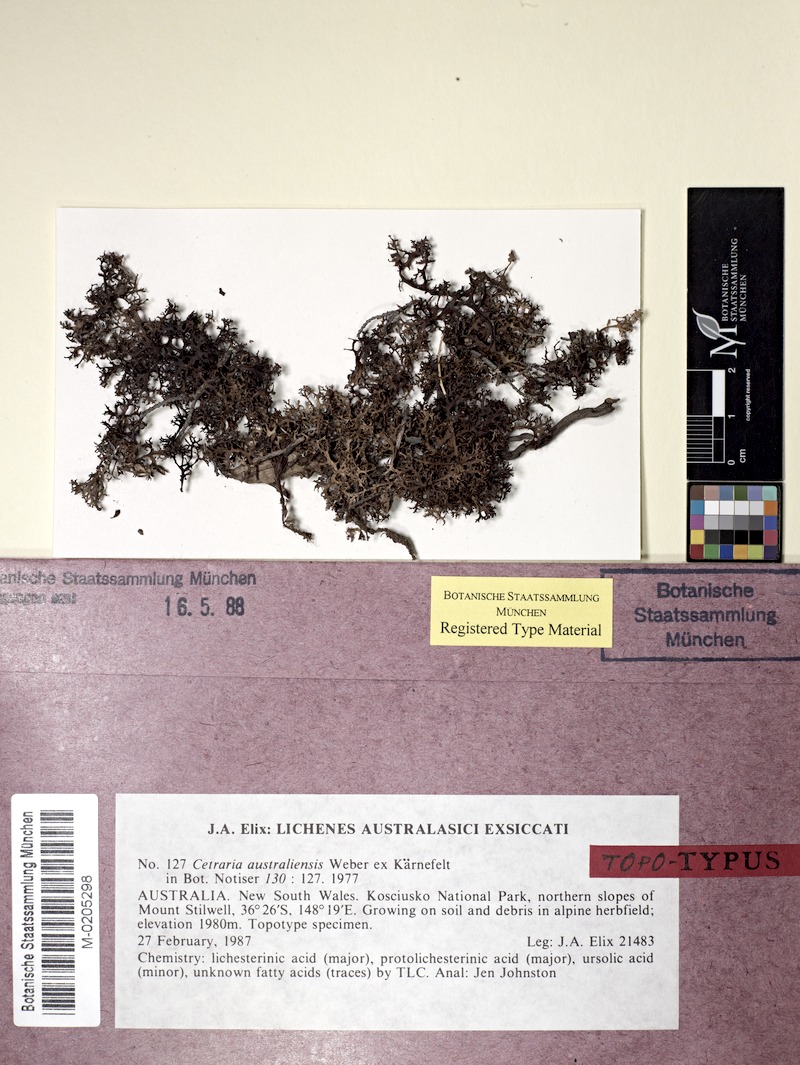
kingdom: Fungi
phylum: Ascomycota
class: Lecanoromycetes
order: Lecanorales
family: Parmeliaceae
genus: Cetraria
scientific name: Cetraria australiensis
